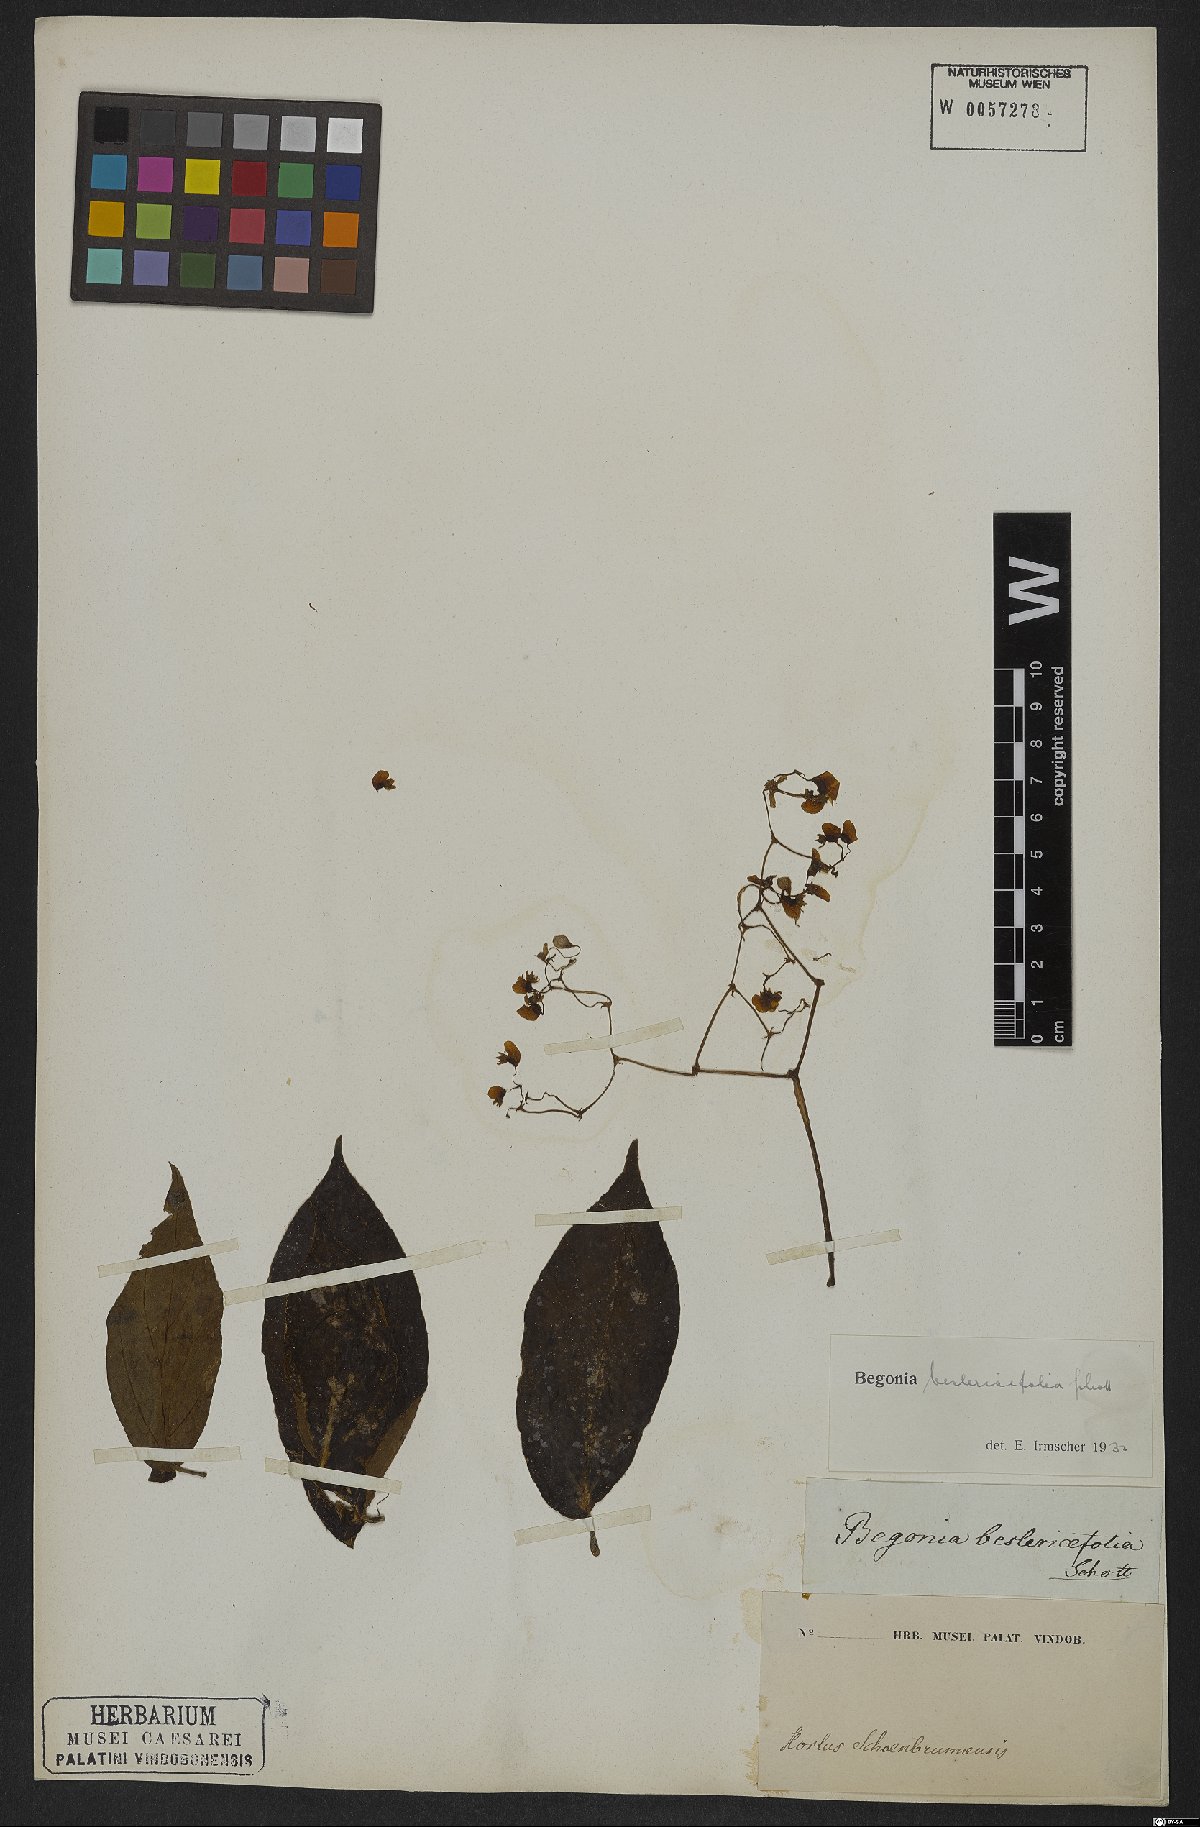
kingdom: Plantae
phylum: Tracheophyta
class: Magnoliopsida
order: Cucurbitales
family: Begoniaceae
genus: Begonia
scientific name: Begonia besleriifolia
